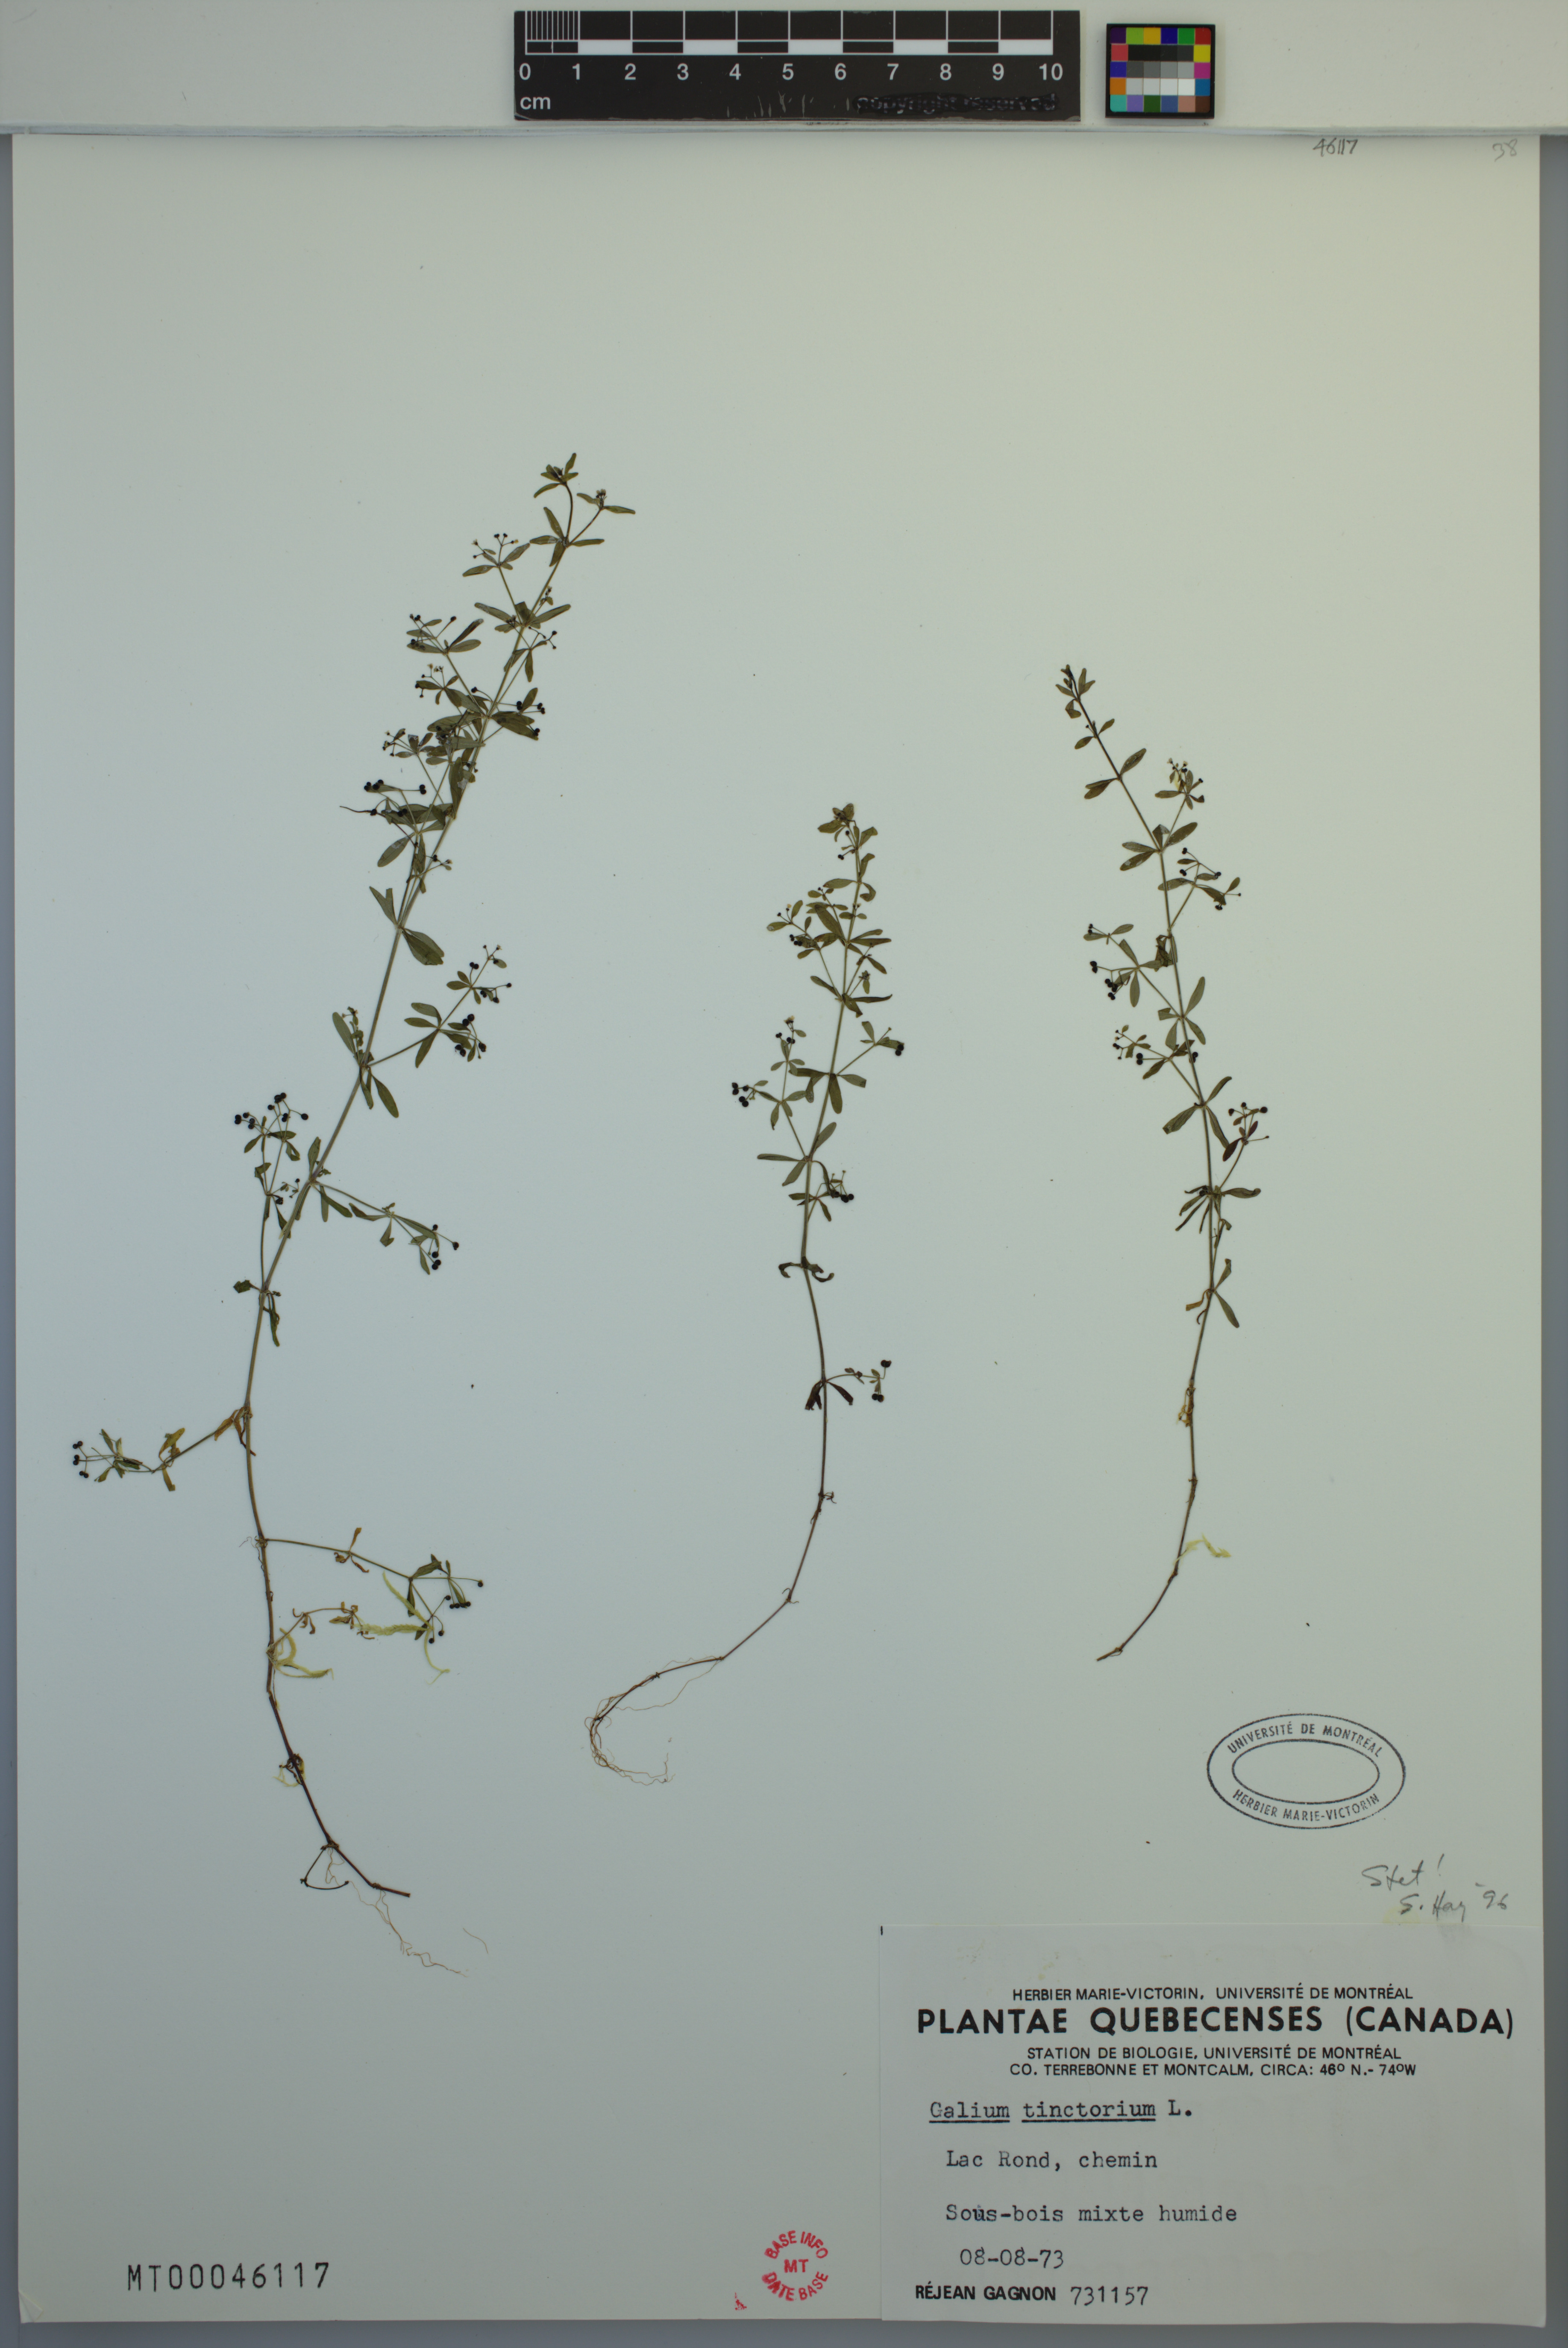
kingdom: Plantae
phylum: Tracheophyta
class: Magnoliopsida
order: Gentianales
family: Rubiaceae
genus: Galium
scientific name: Galium tinctorium
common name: Bedstraw
